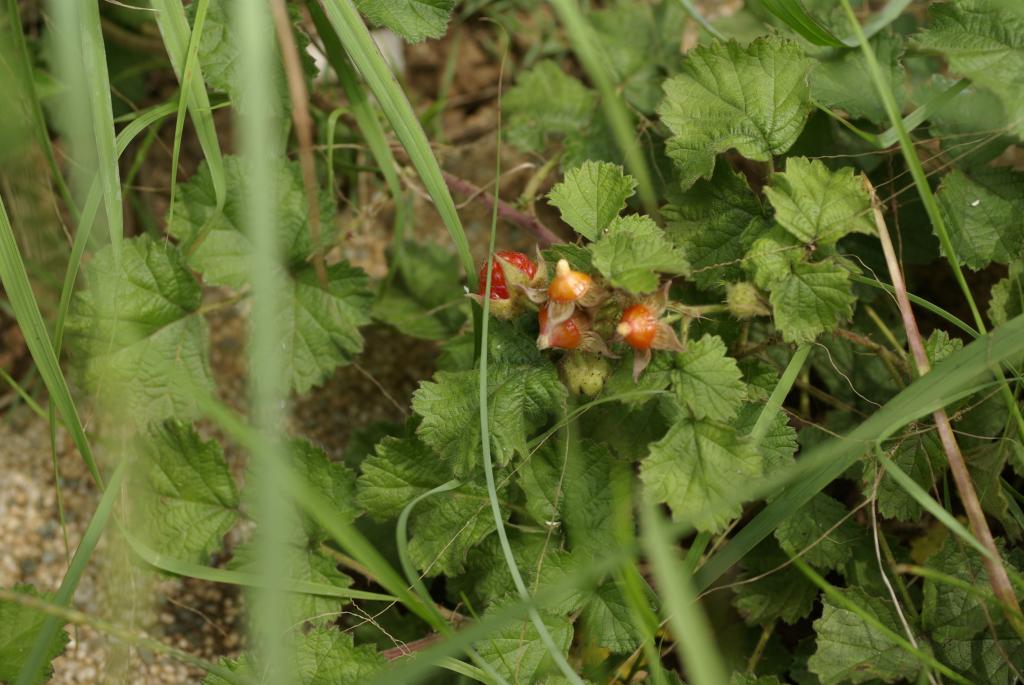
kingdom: Plantae
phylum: Tracheophyta
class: Magnoliopsida
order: Rosales
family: Rosaceae
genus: Rubus
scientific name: Rubus parvifolius
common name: Threeleaf blackberry
